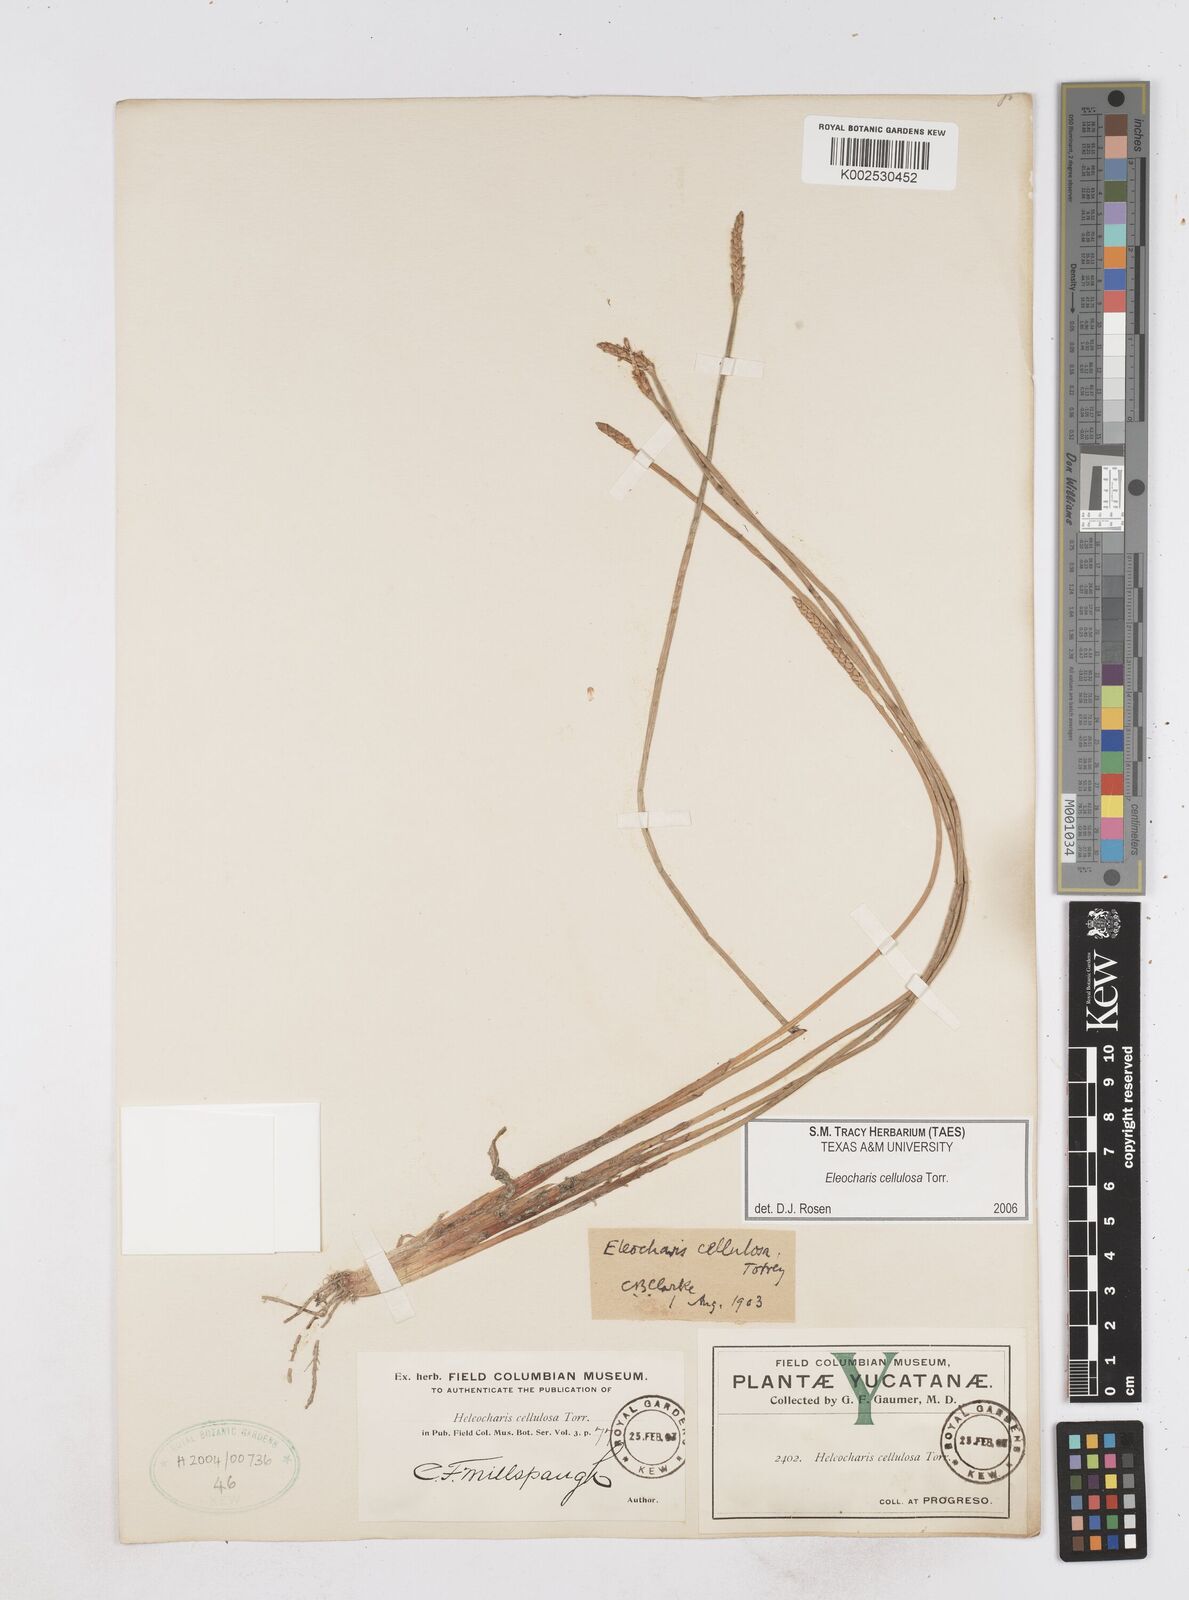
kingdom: Plantae
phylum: Tracheophyta
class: Liliopsida
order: Poales
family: Cyperaceae
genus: Eleocharis
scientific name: Eleocharis cellulosa
